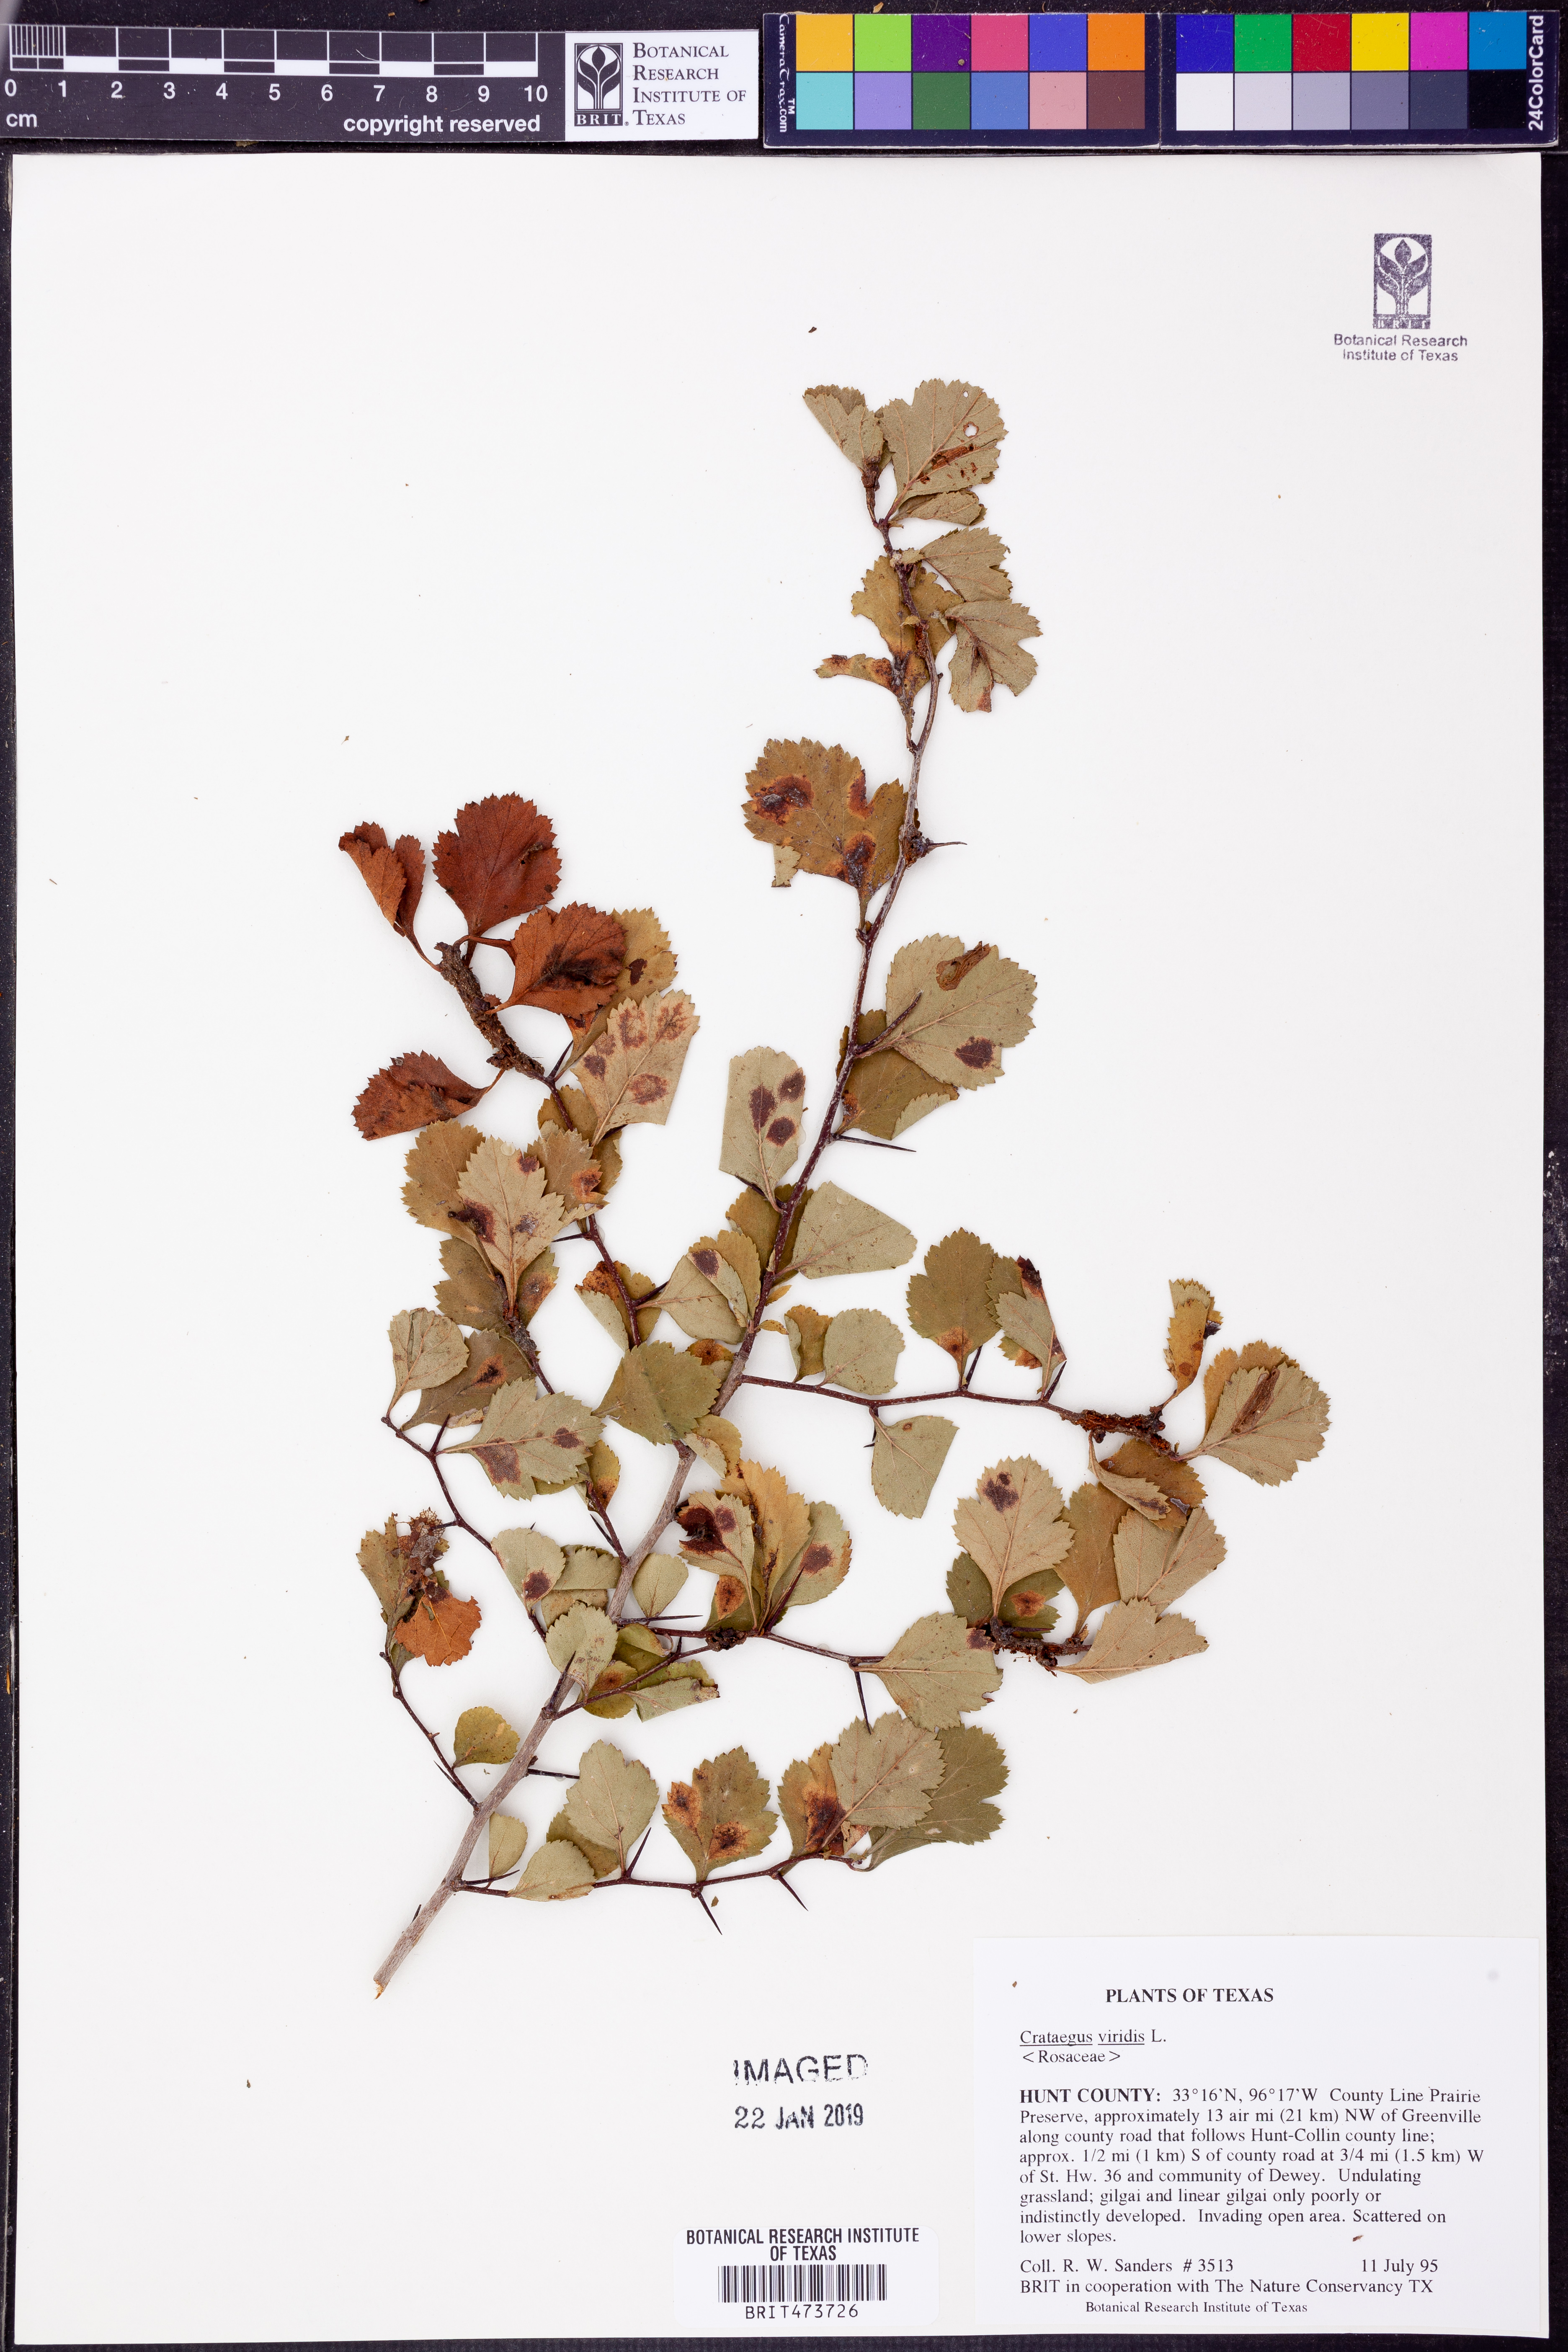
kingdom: Plantae
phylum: Tracheophyta
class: Magnoliopsida
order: Rosales
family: Rosaceae
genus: Crataegus
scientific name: Crataegus viridis
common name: Southernthorn
